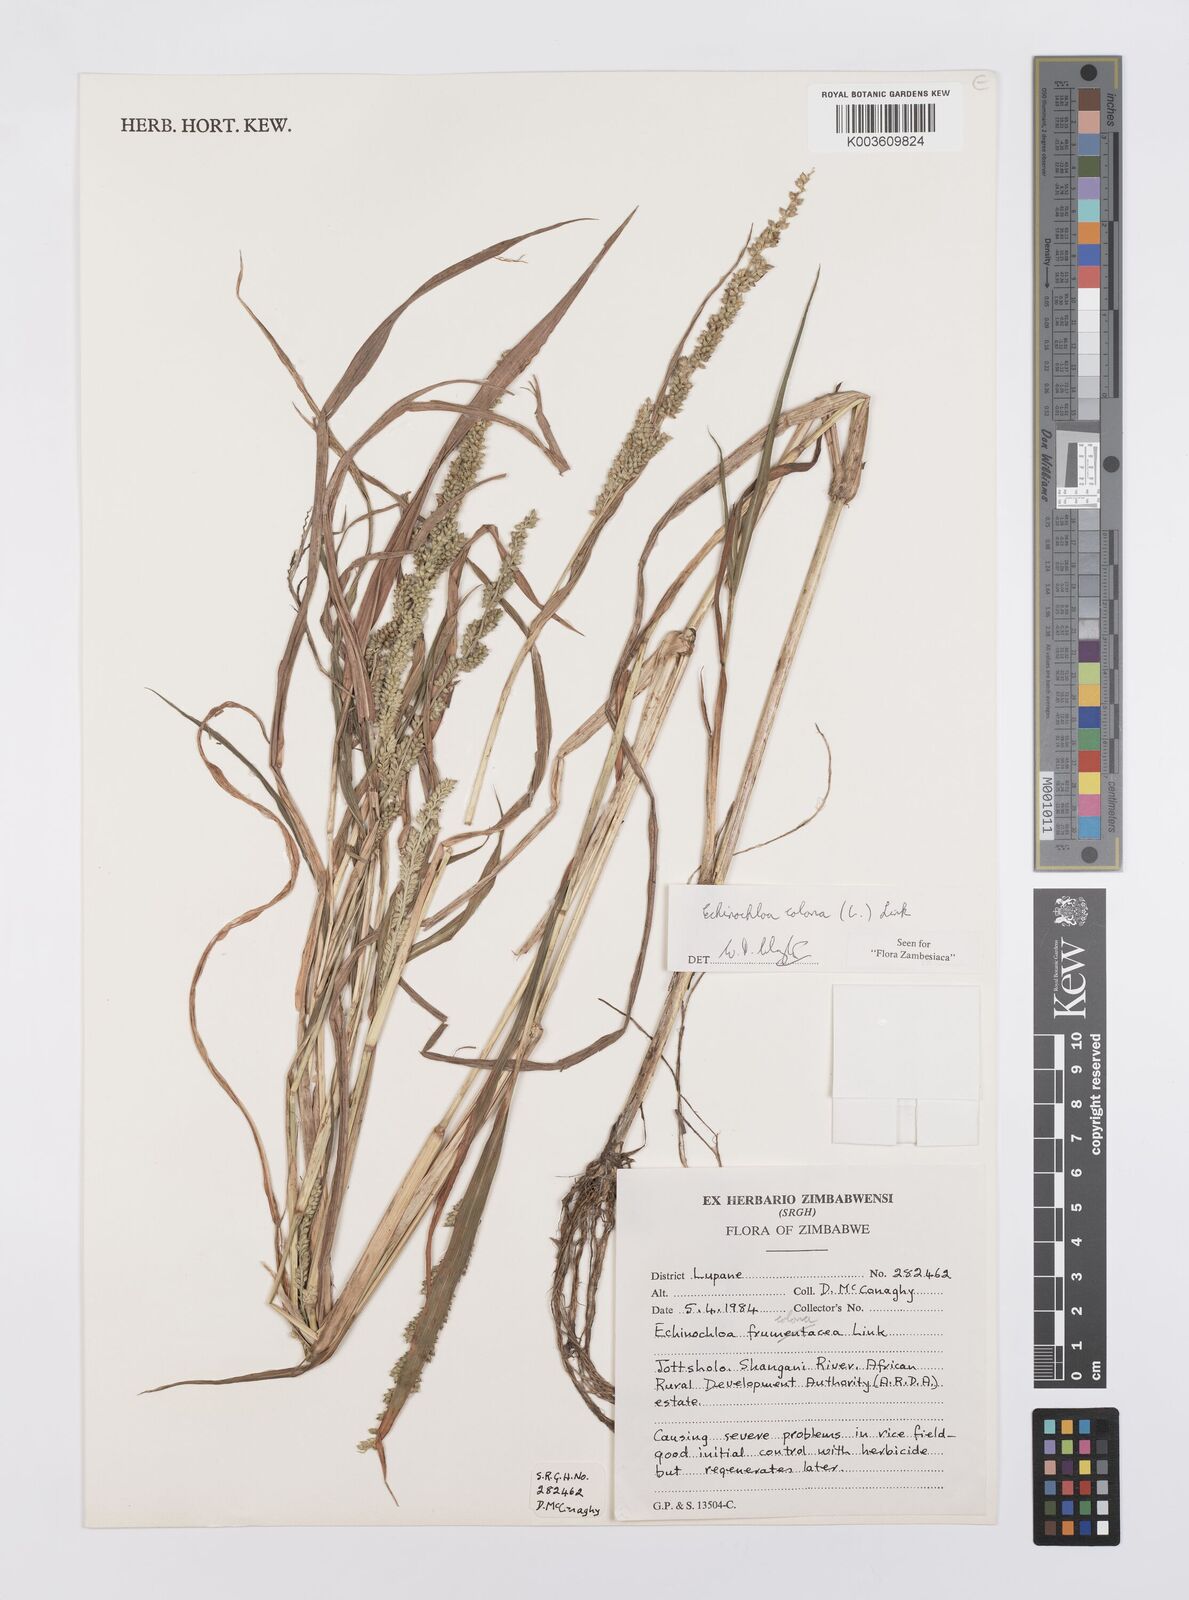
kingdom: Plantae
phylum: Tracheophyta
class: Liliopsida
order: Poales
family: Poaceae
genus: Echinochloa
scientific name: Echinochloa colonum
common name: Jungle rice
